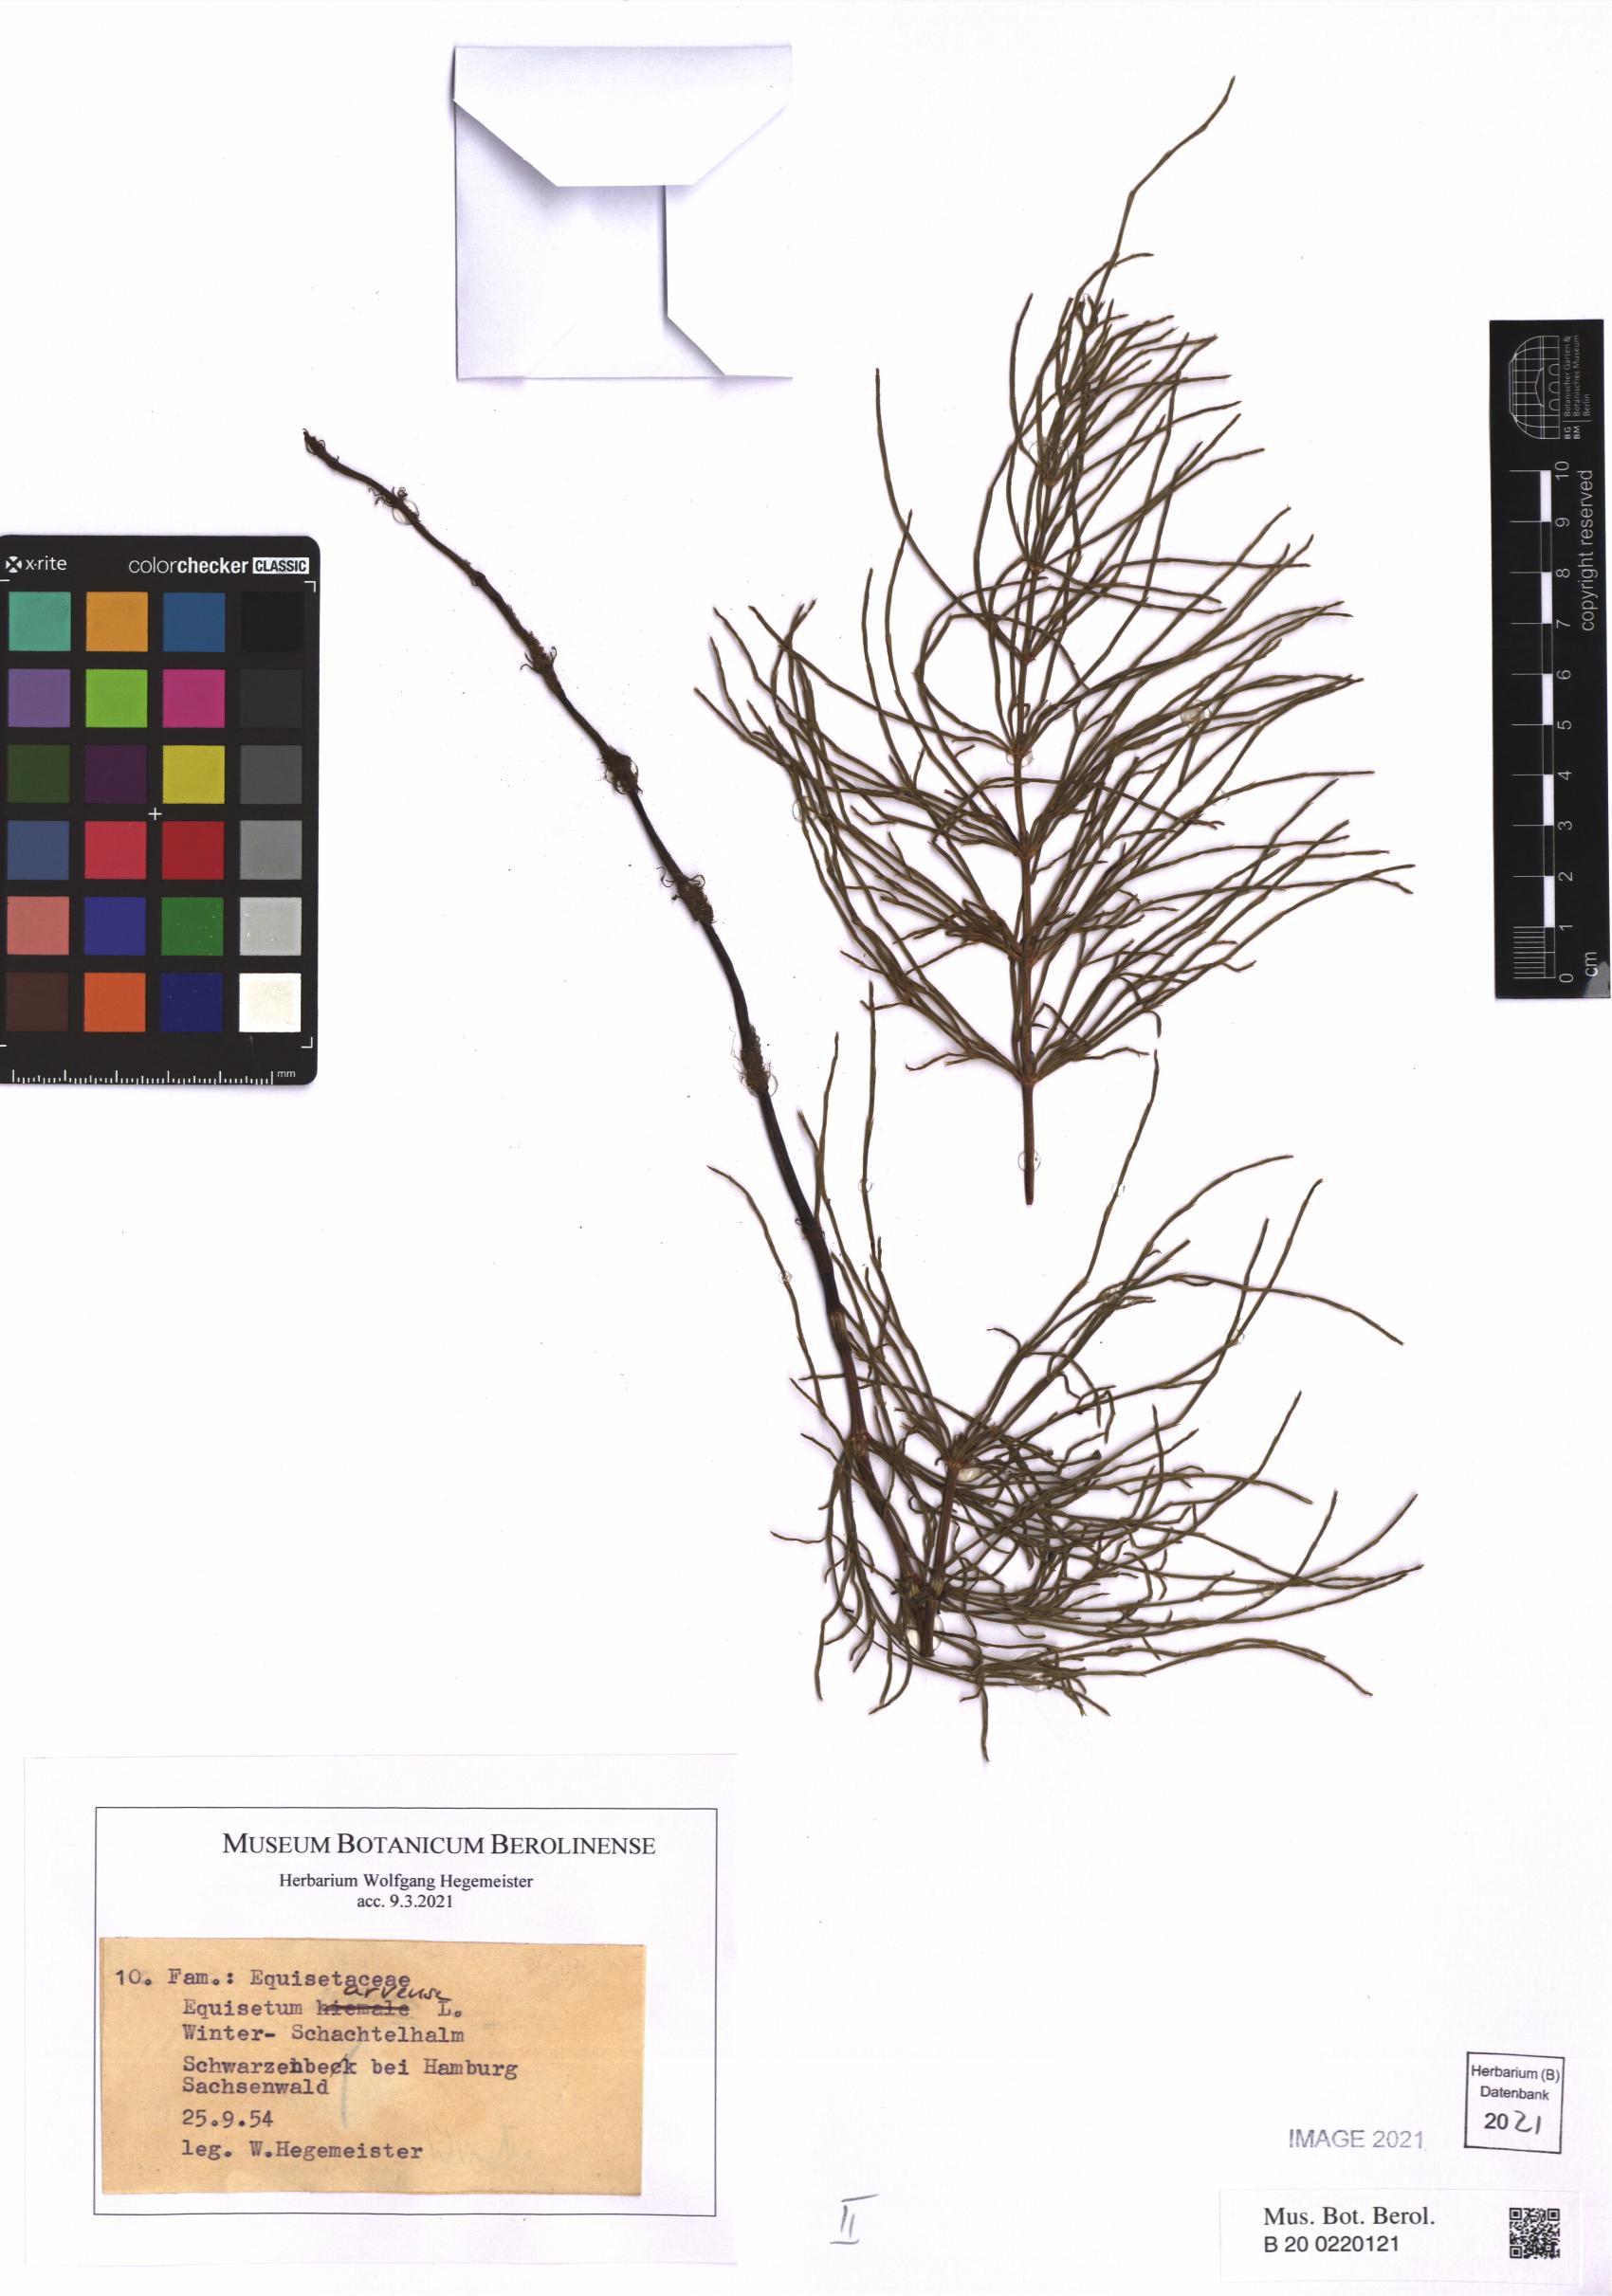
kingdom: Plantae
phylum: Tracheophyta
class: Polypodiopsida
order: Equisetales
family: Equisetaceae
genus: Equisetum
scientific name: Equisetum arvense
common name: Field horsetail
